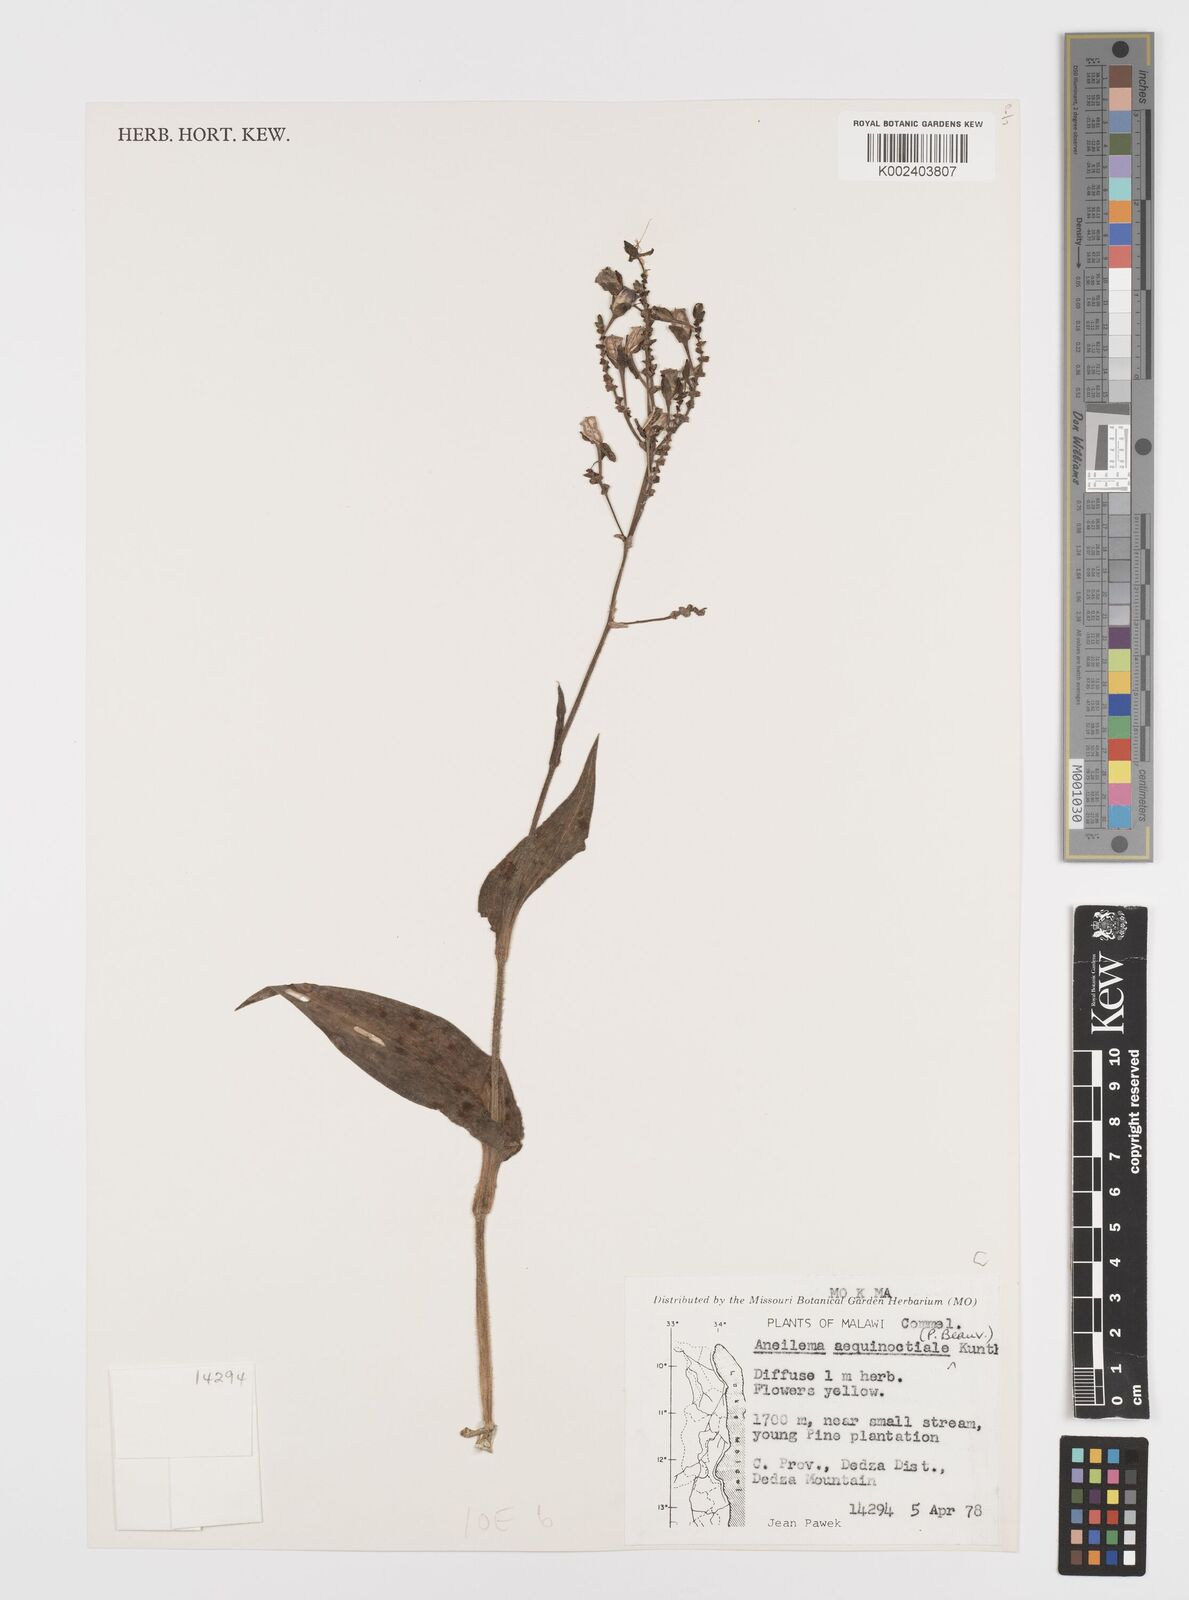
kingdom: Plantae
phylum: Tracheophyta
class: Liliopsida
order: Commelinales
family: Commelinaceae
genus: Aneilema
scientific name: Aneilema aequinoctiale
